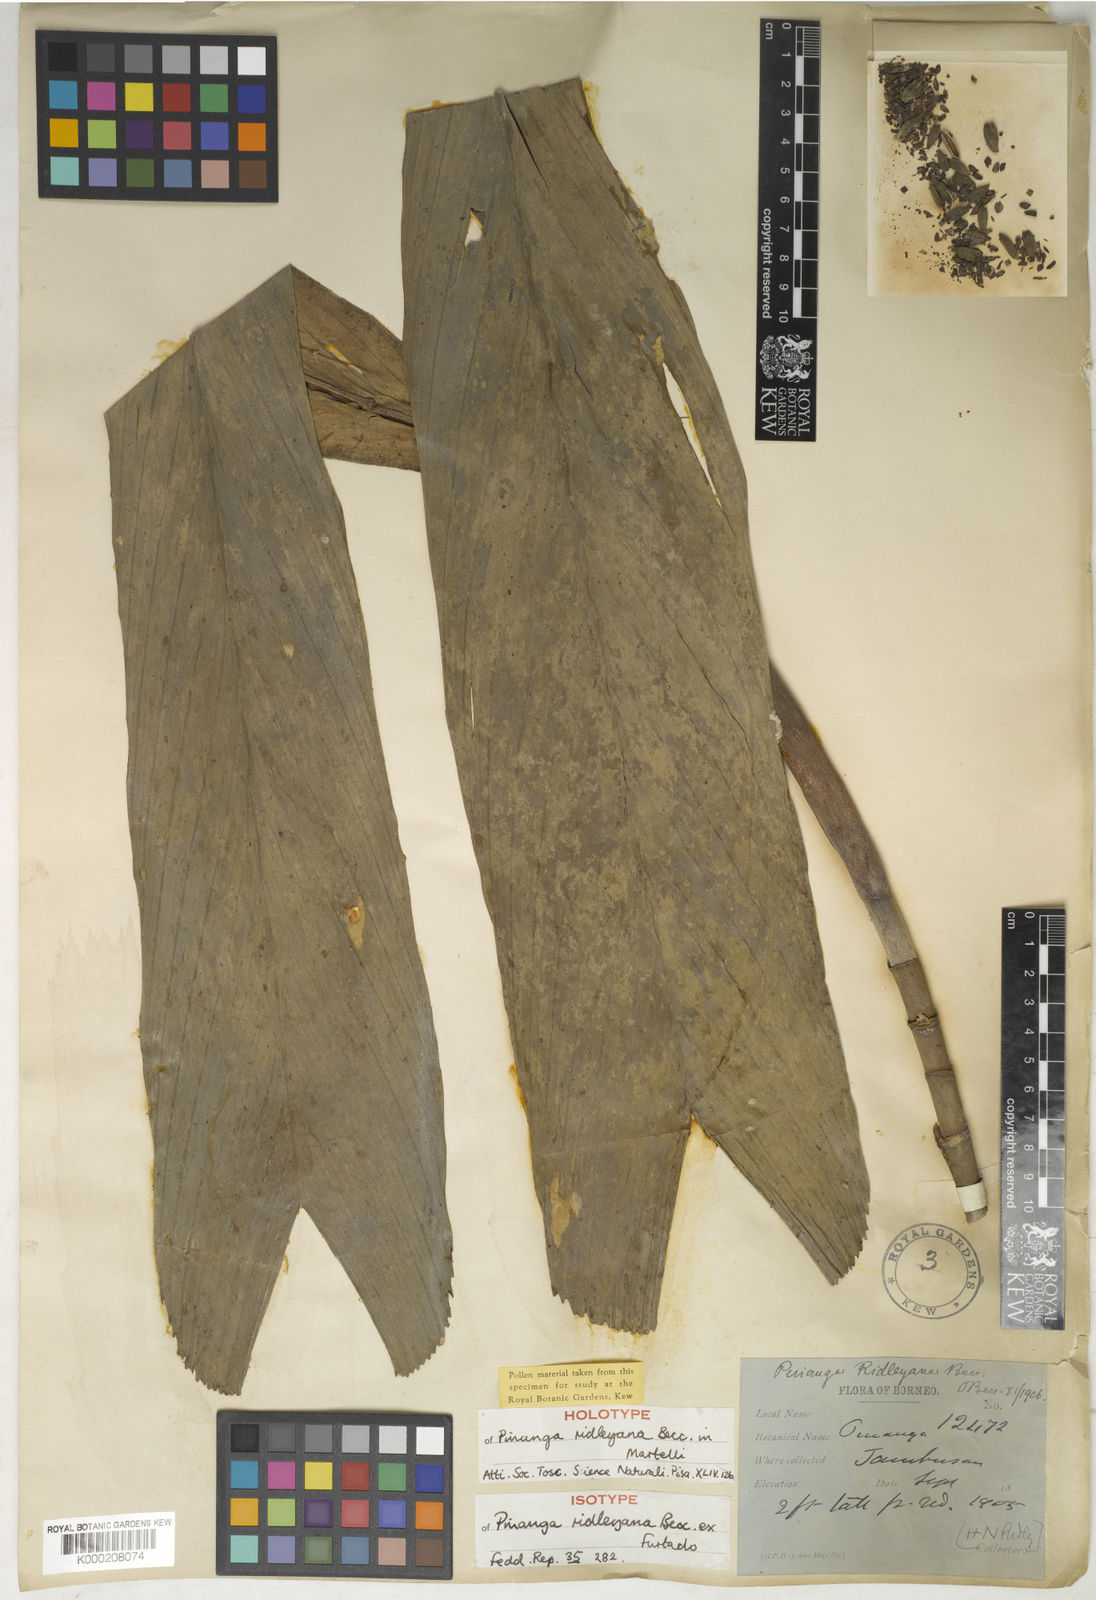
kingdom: Plantae
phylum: Tracheophyta
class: Liliopsida
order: Arecales
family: Arecaceae
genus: Pinanga
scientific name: Pinanga ridleyana
